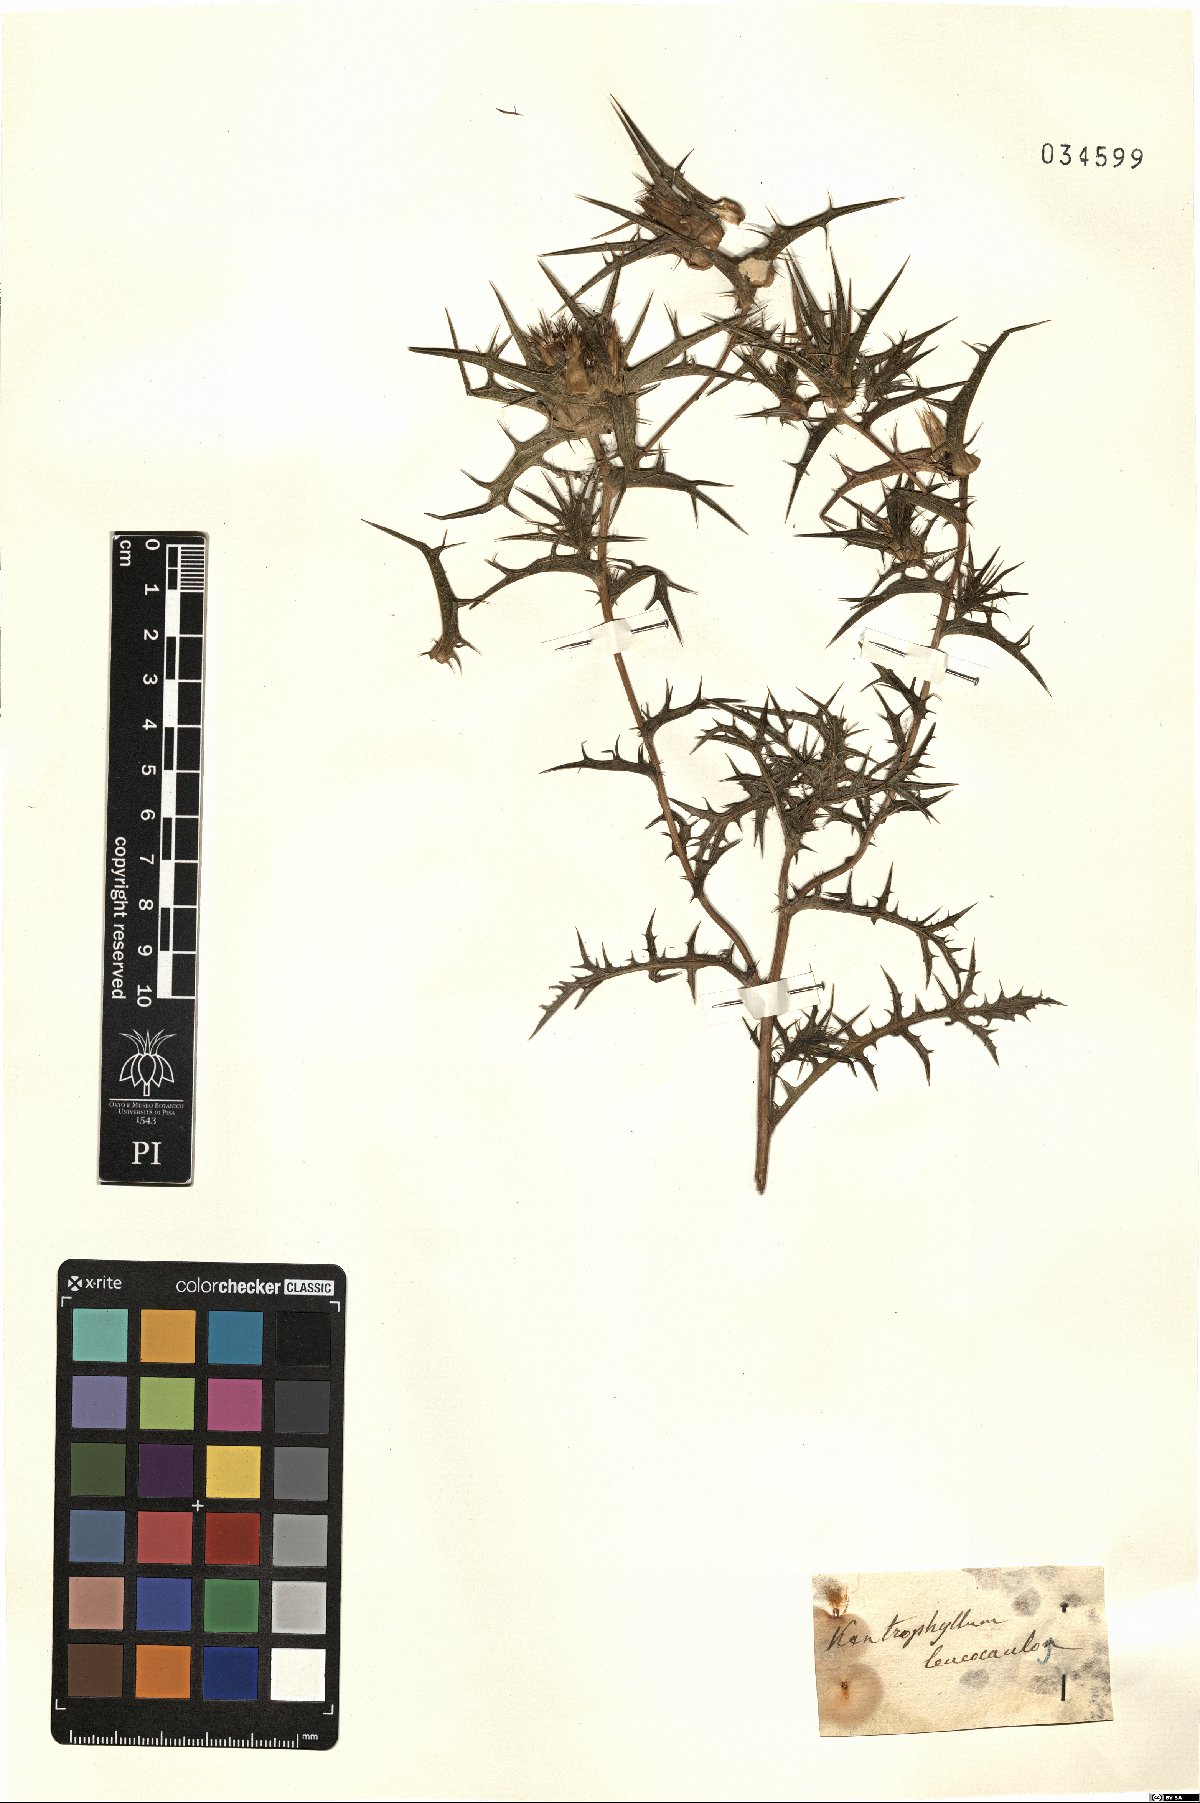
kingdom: Plantae
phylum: Tracheophyta
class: Magnoliopsida
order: Asterales
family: Asteraceae
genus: Carthamus
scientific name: Carthamus leucocaulos
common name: Whitestem distaff thistle
